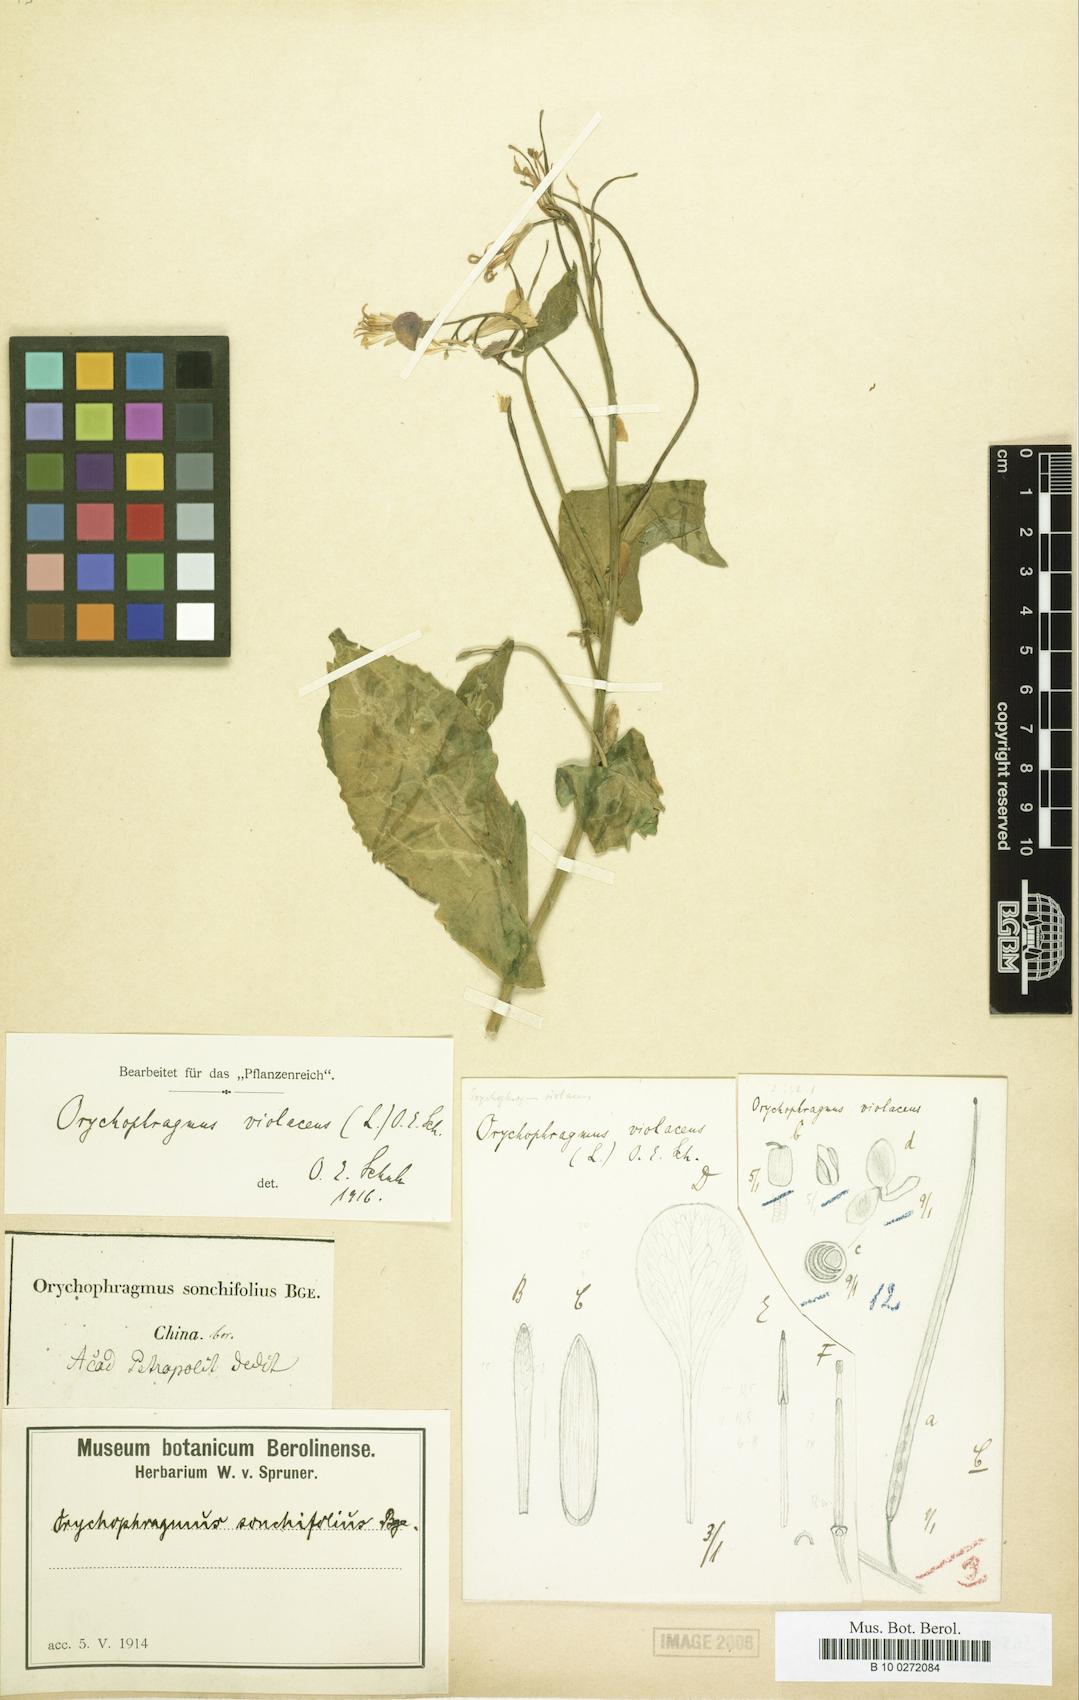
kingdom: Plantae
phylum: Tracheophyta
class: Magnoliopsida
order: Brassicales
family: Brassicaceae
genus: Orychophragmus
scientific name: Orychophragmus violaceus
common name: Mustard
